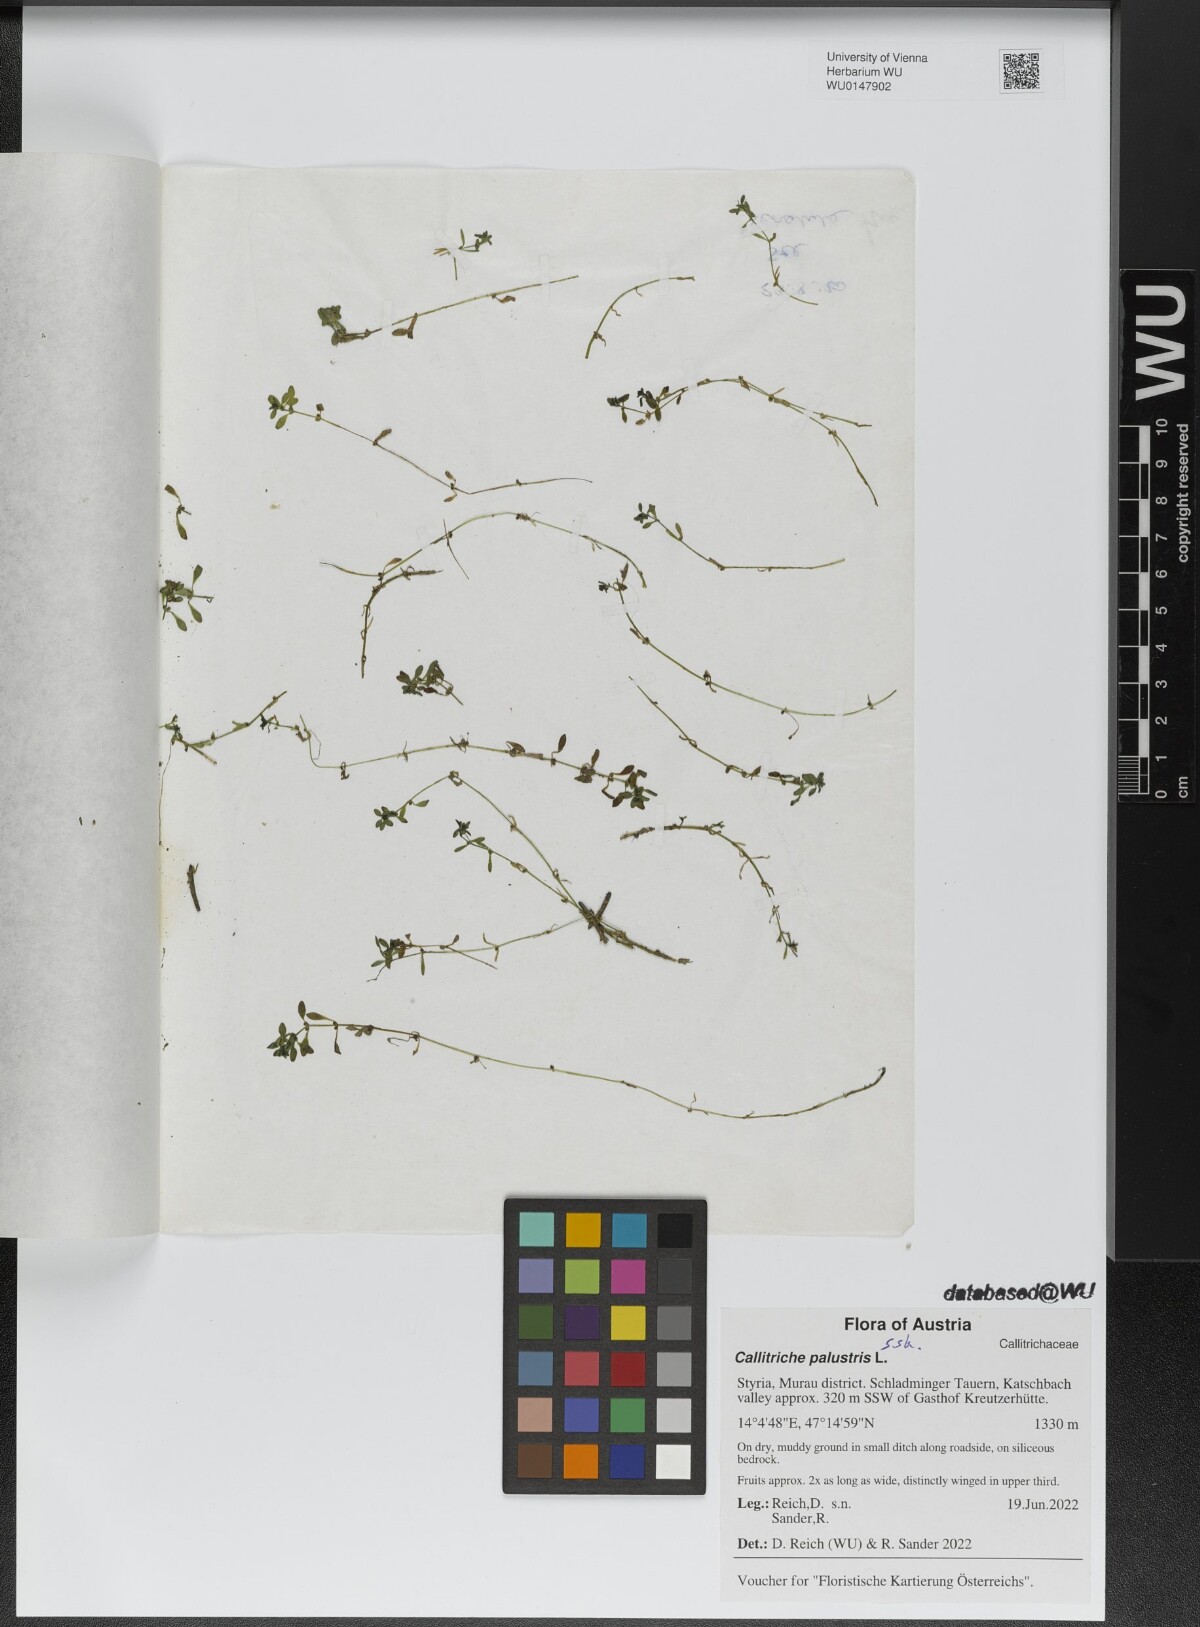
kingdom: Plantae
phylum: Tracheophyta
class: Magnoliopsida
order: Lamiales
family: Plantaginaceae
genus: Callitriche
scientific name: Callitriche palustris
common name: Spring water-starwort
